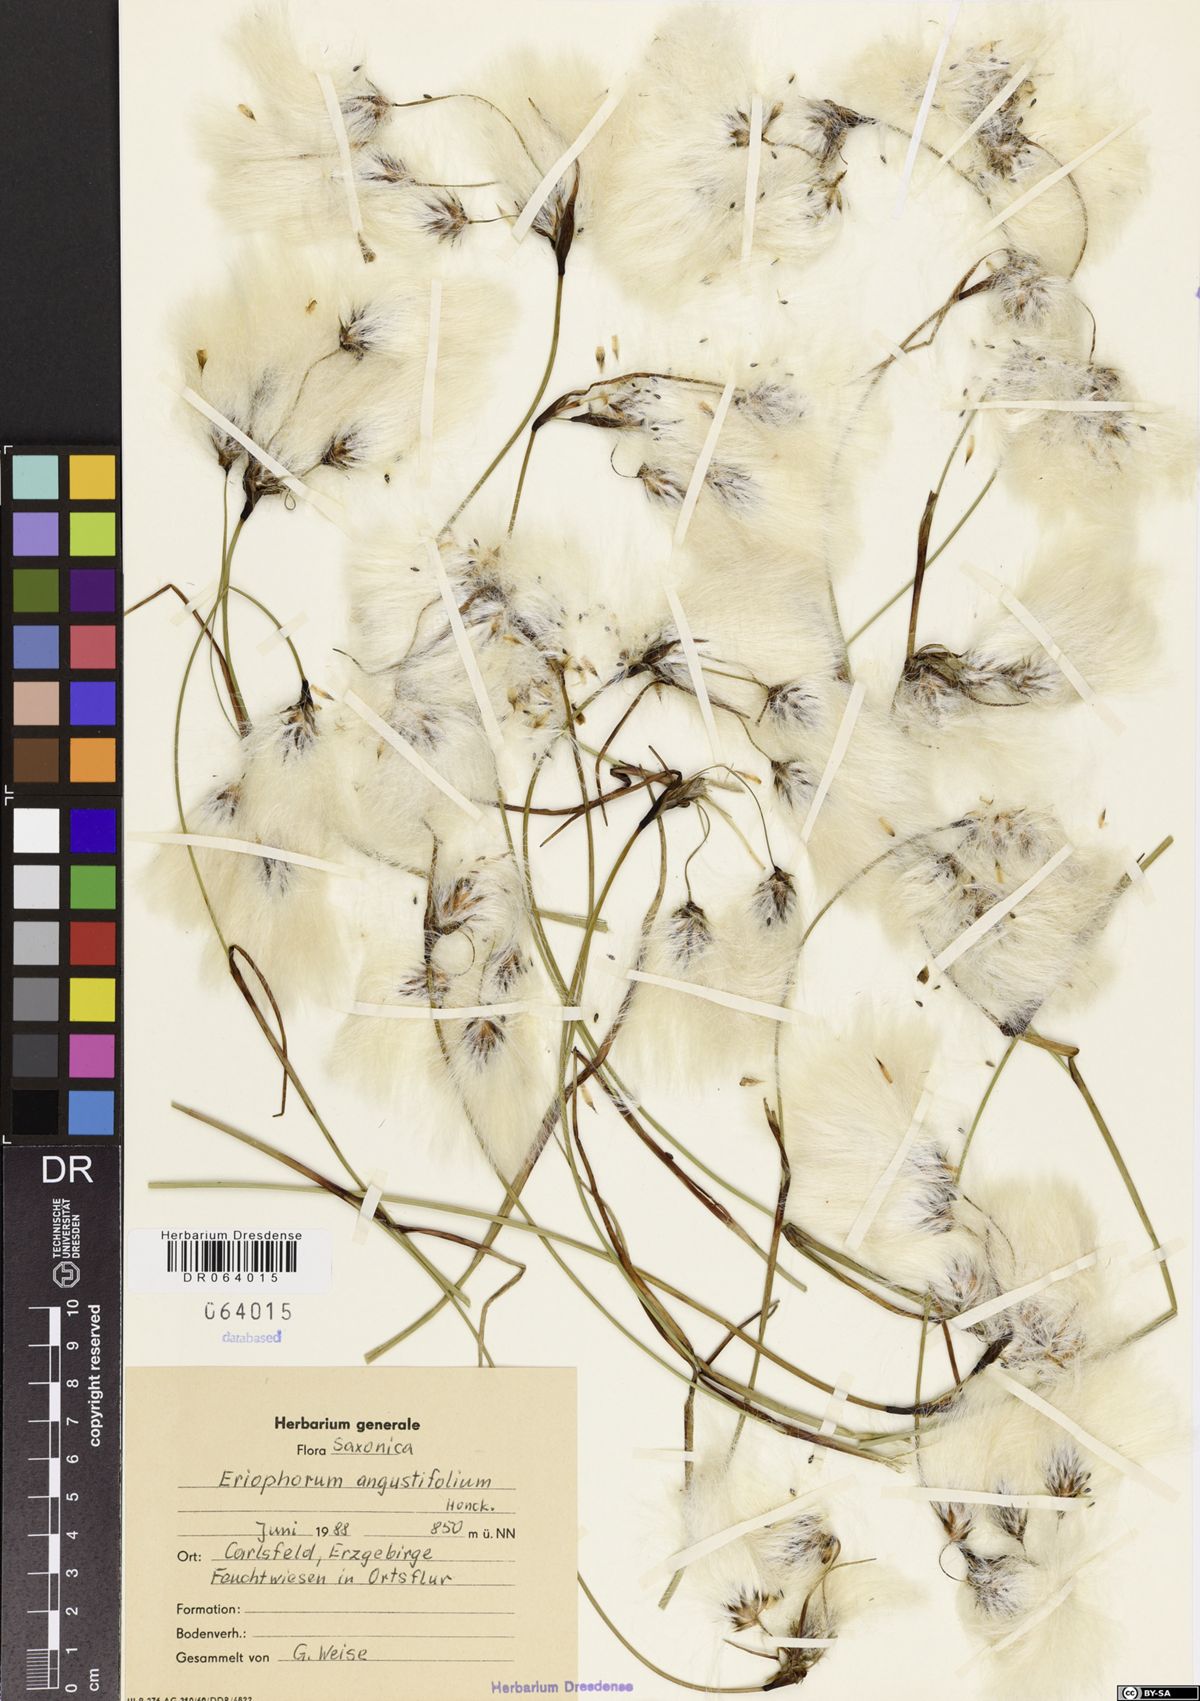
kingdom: Plantae
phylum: Tracheophyta
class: Liliopsida
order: Poales
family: Cyperaceae
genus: Eriophorum
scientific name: Eriophorum angustifolium
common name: Common cottongrass
